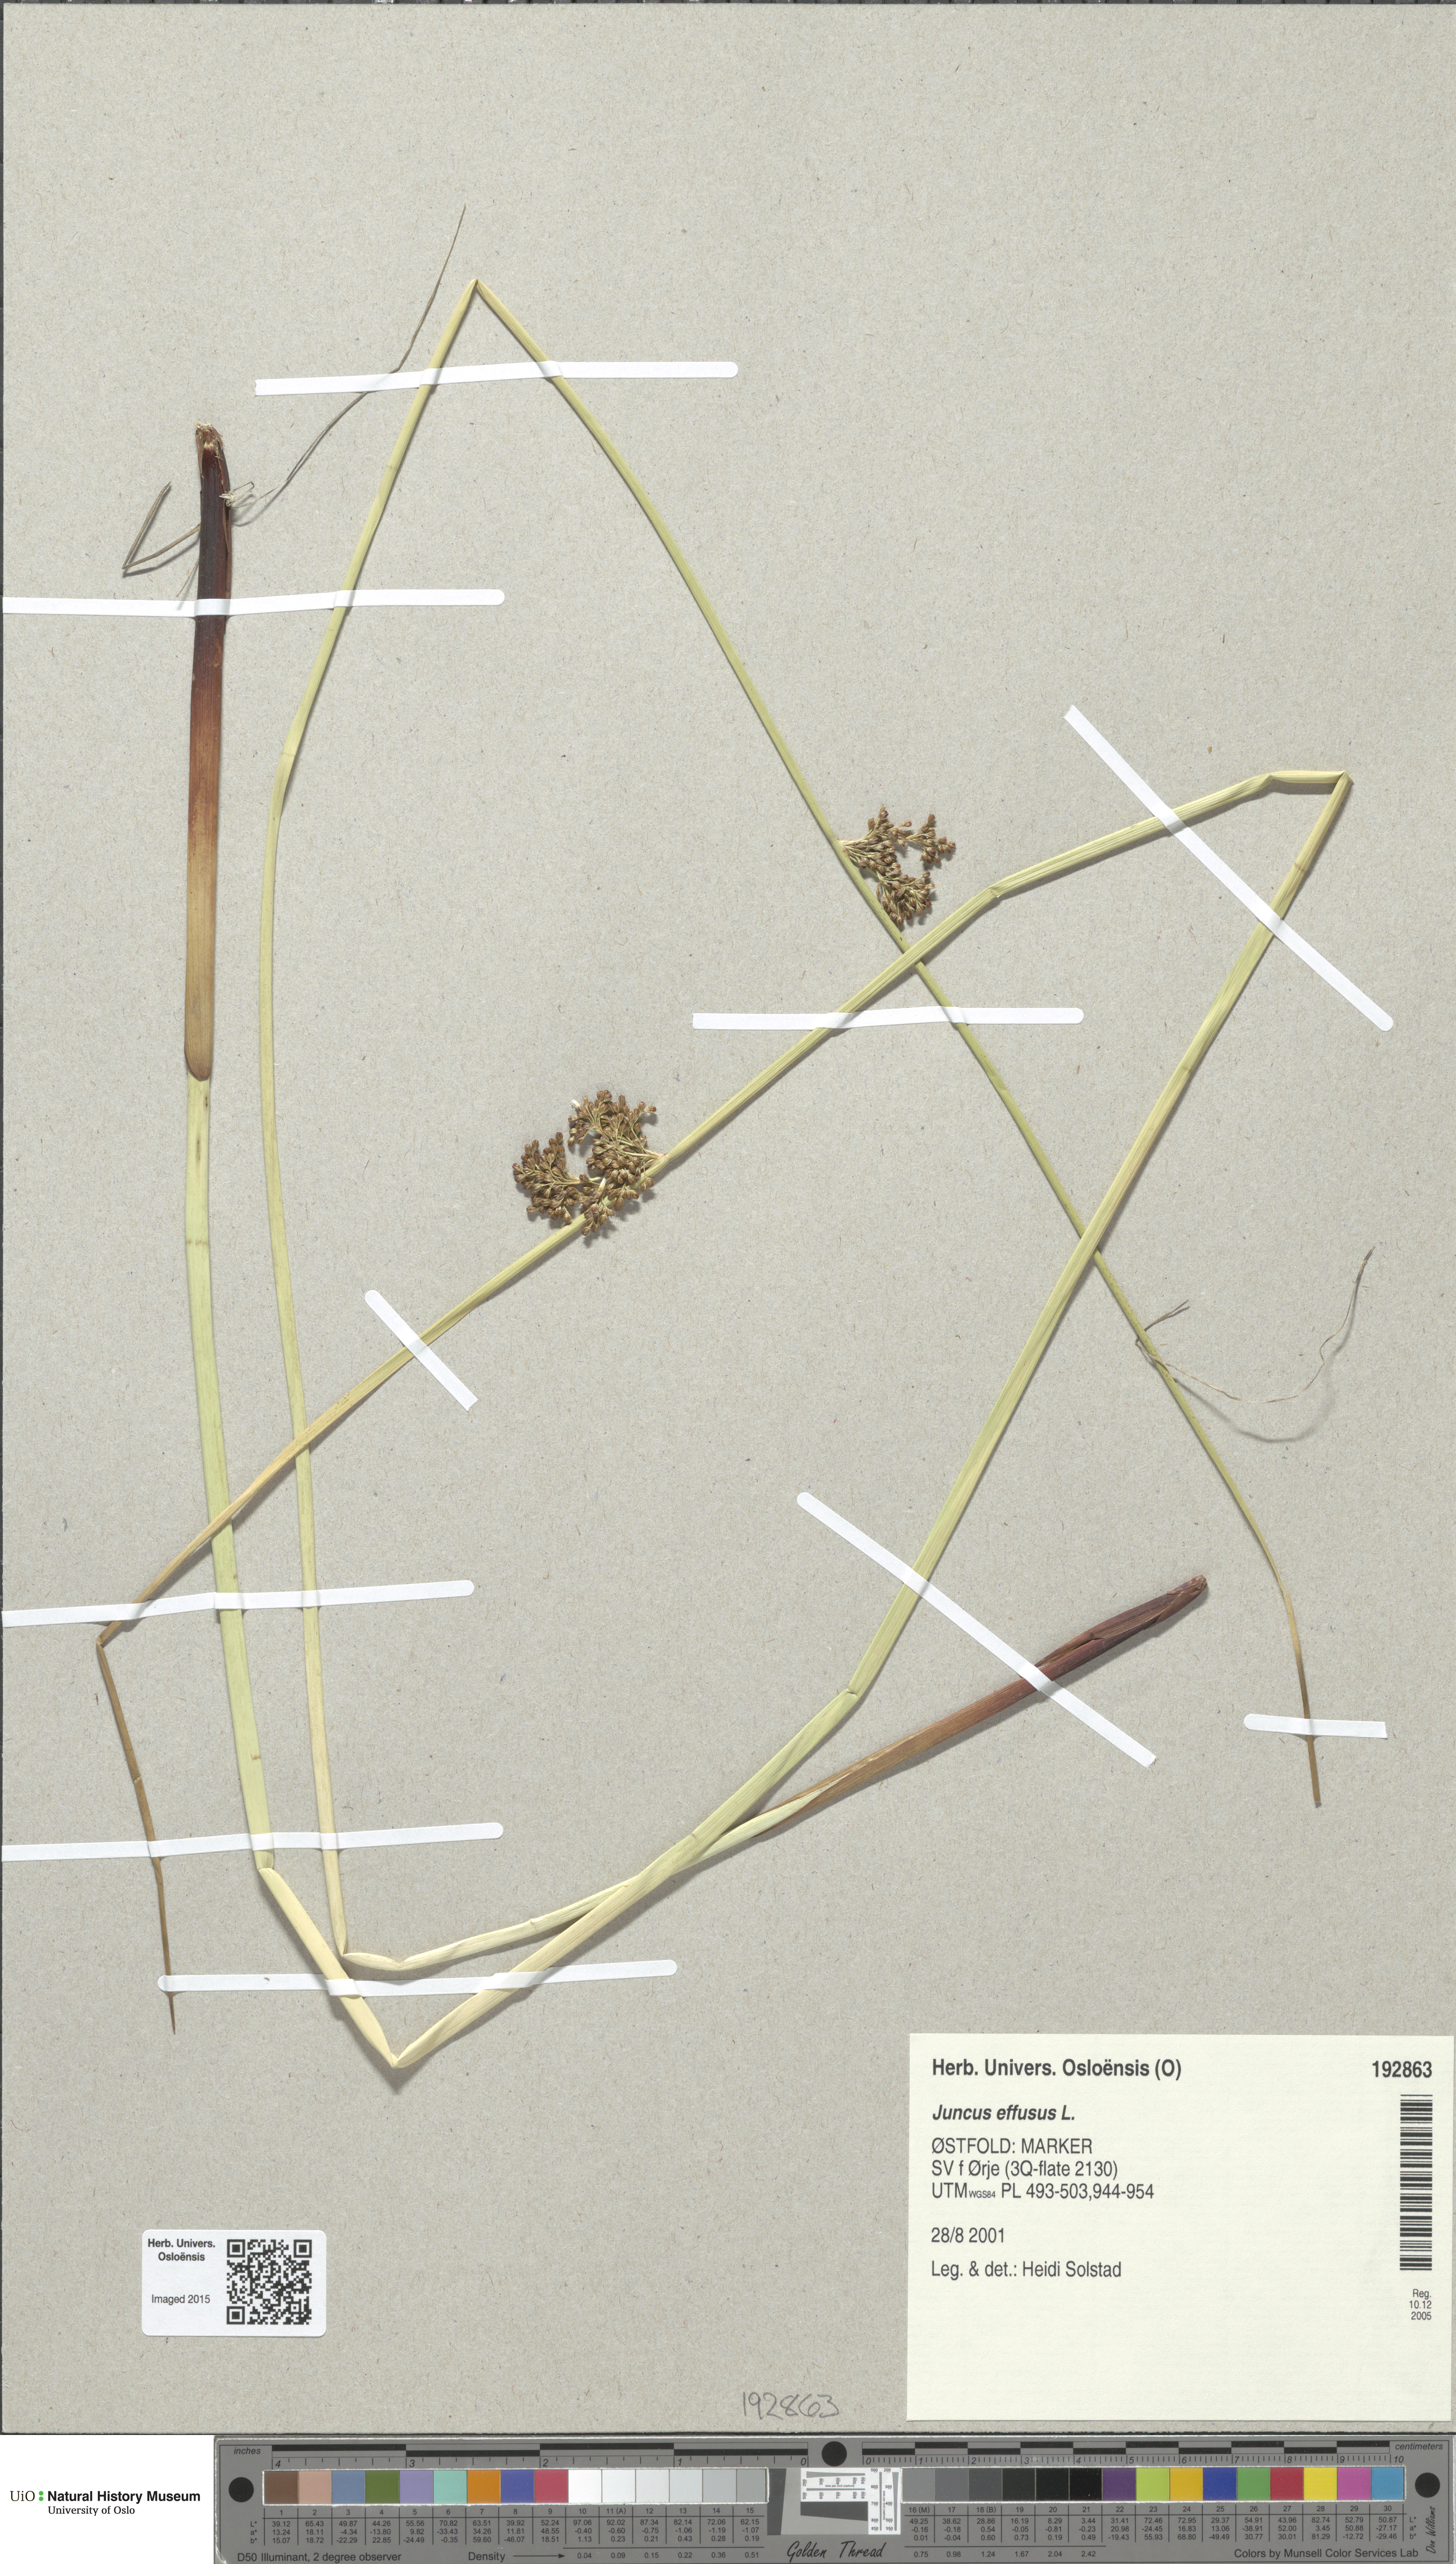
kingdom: Plantae
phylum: Tracheophyta
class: Liliopsida
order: Poales
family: Juncaceae
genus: Juncus
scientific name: Juncus effusus
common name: Soft rush
